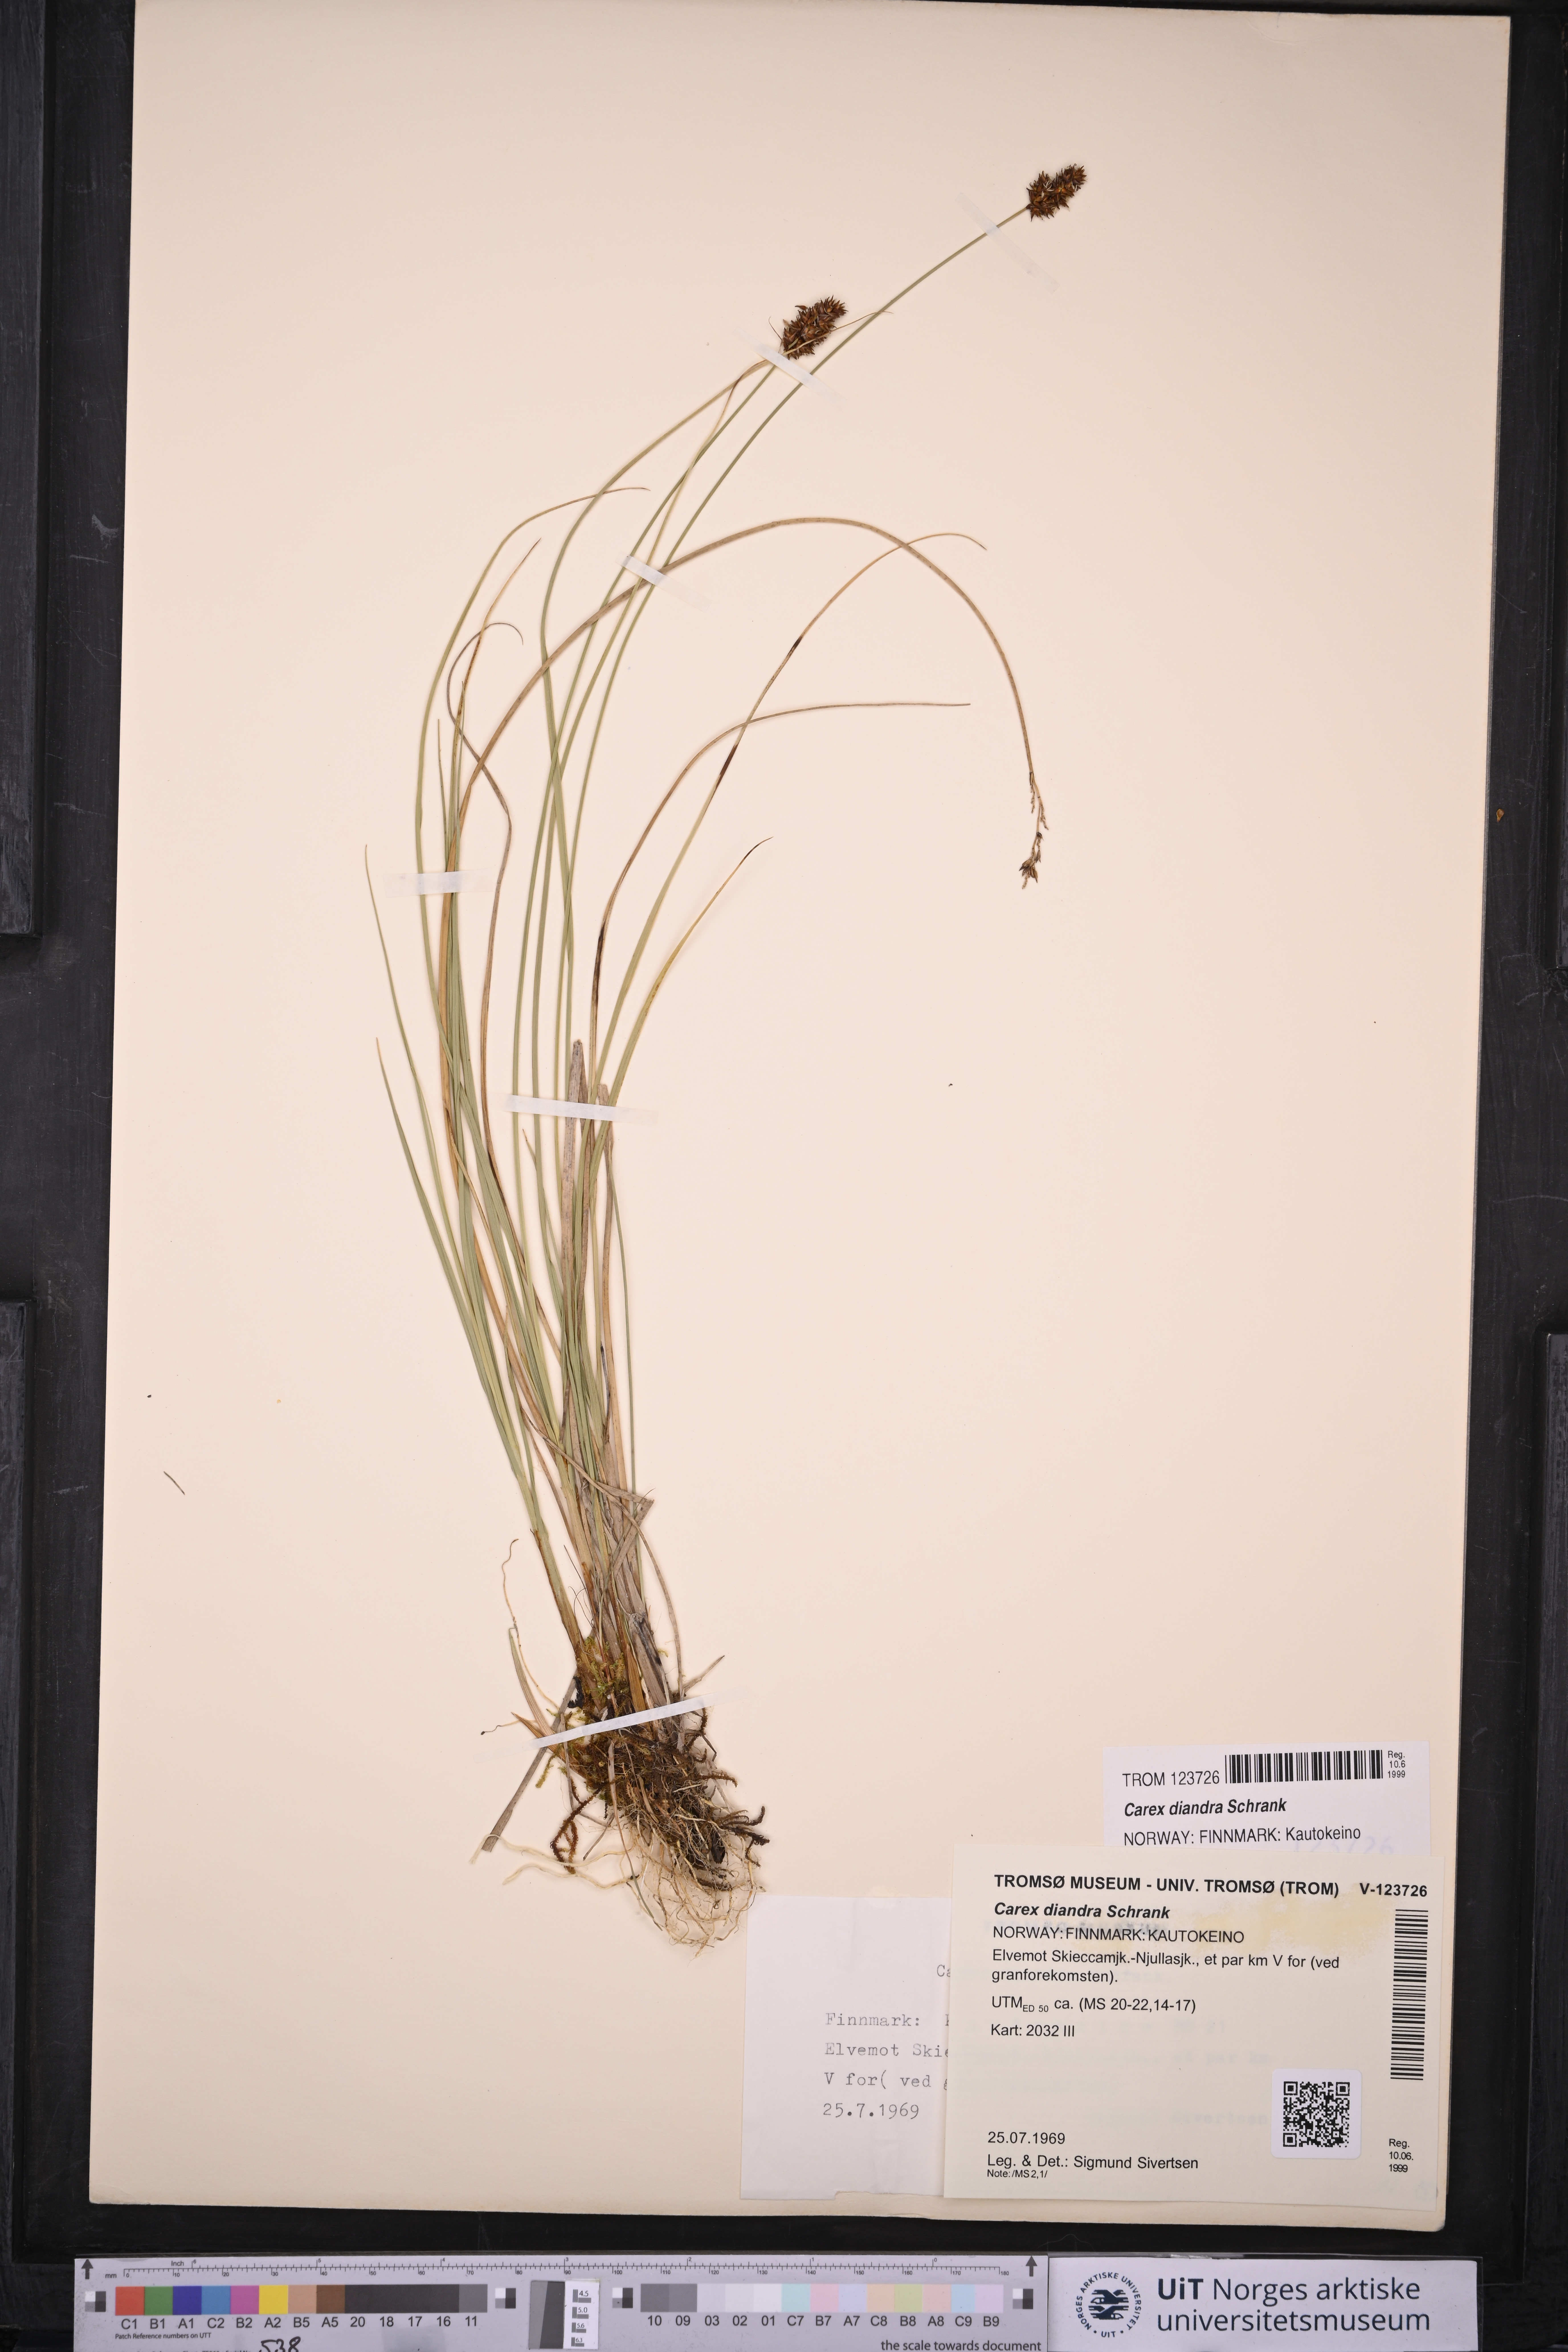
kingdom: Plantae
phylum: Tracheophyta
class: Liliopsida
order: Poales
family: Cyperaceae
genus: Carex
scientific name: Carex diandra
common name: Lesser tussock-sedge
